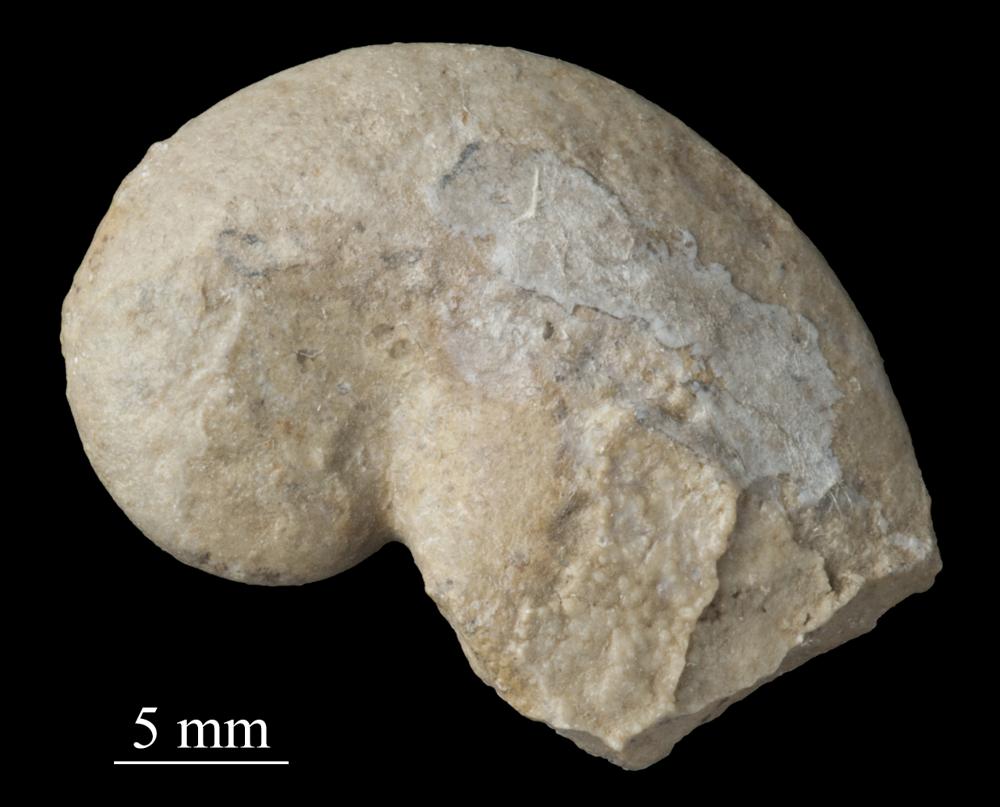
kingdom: Animalia
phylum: Mollusca
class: Gastropoda
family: Bellerophontidae
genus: Bellerophon
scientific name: Bellerophon
